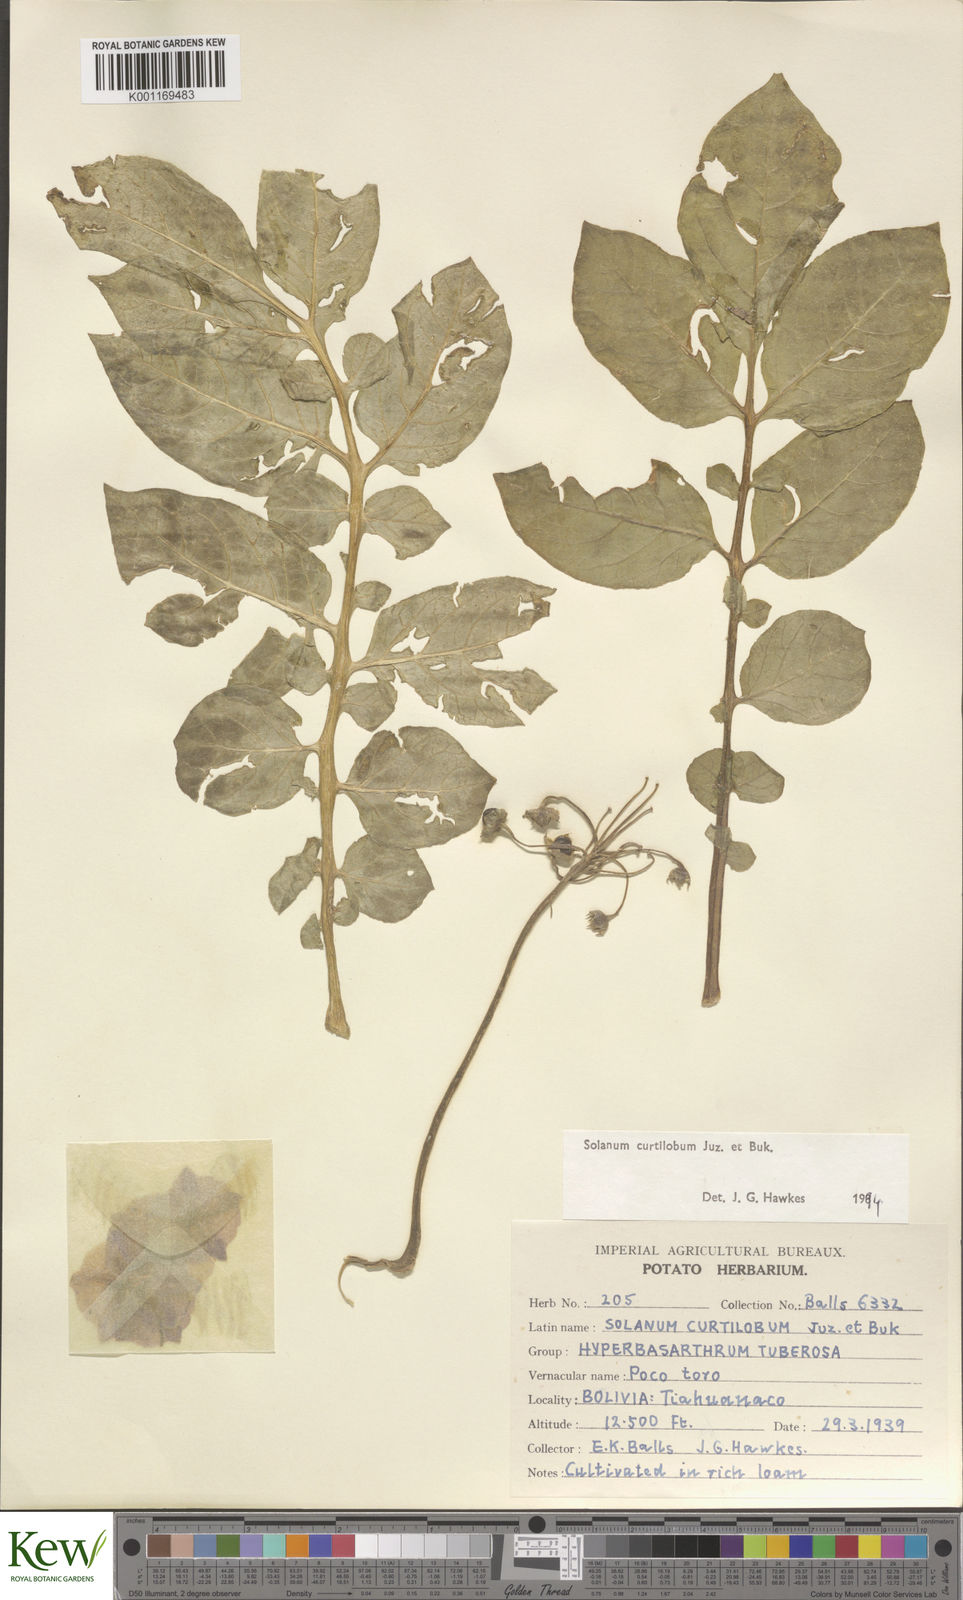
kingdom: Plantae
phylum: Tracheophyta
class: Magnoliopsida
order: Solanales
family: Solanaceae
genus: Solanum
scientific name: Solanum curtilobum
